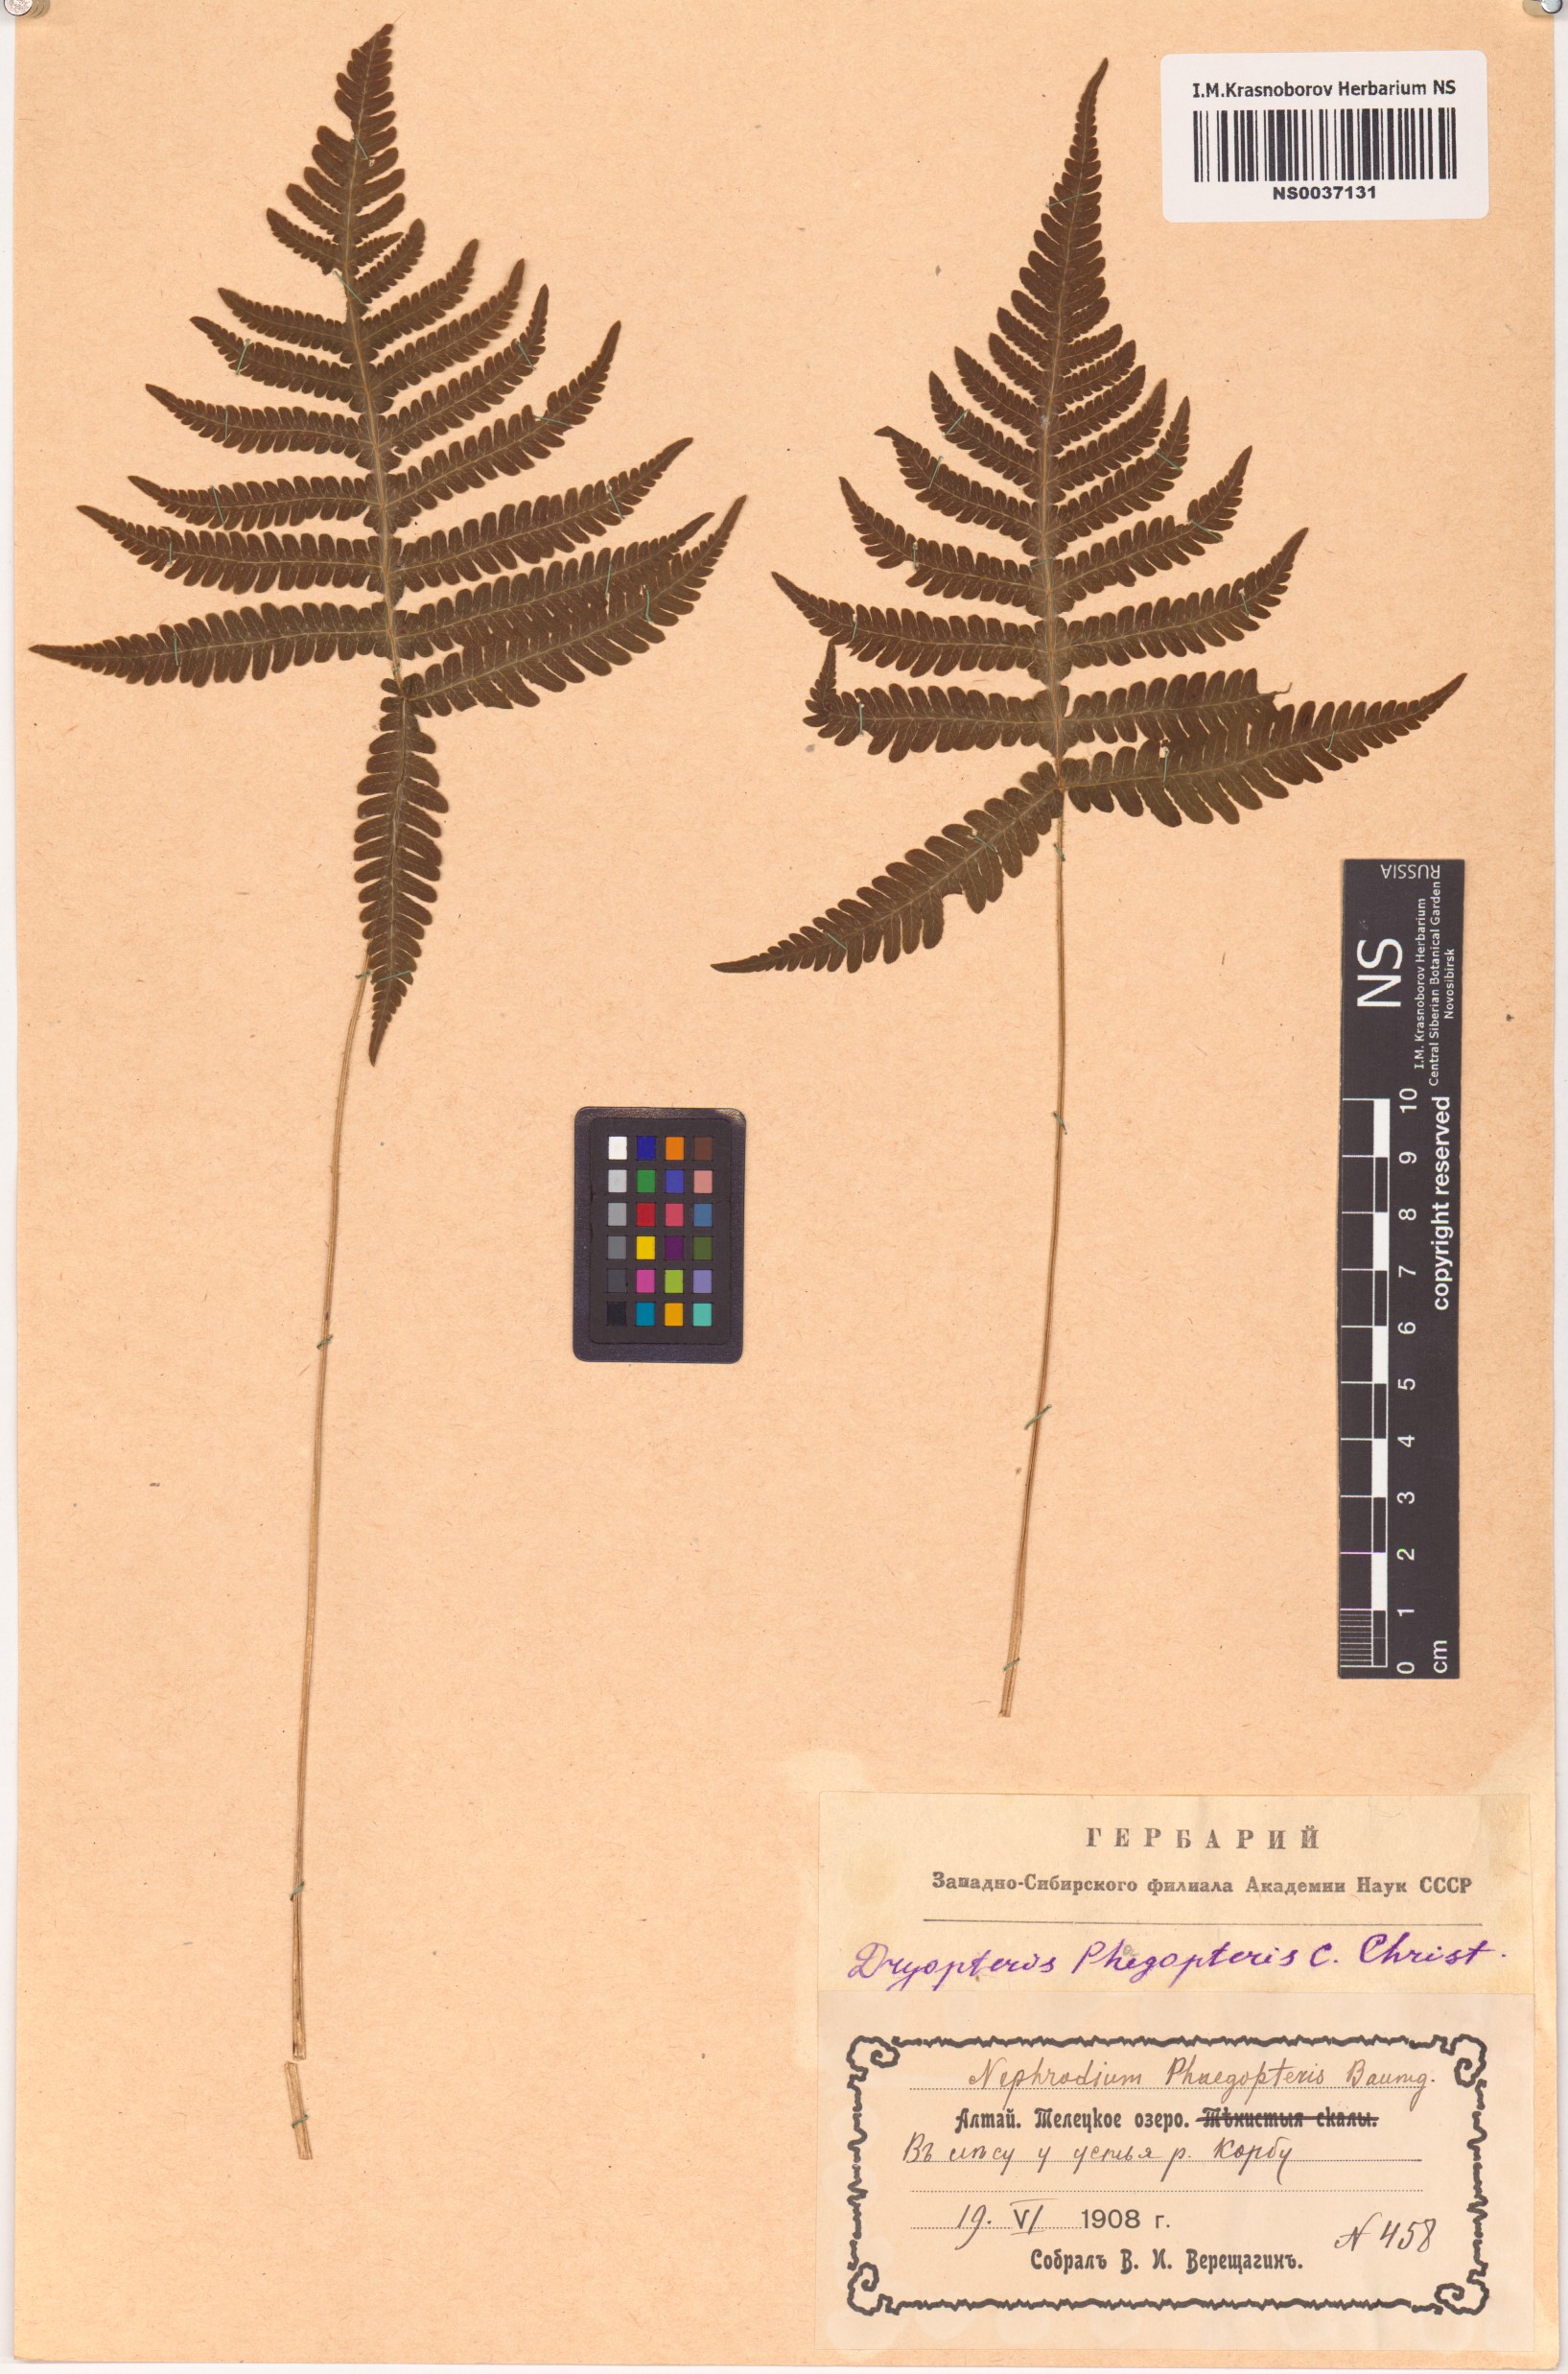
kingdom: Plantae
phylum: Tracheophyta
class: Polypodiopsida
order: Polypodiales
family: Thelypteridaceae
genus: Phegopteris
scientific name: Phegopteris connectilis
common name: Beech fern
